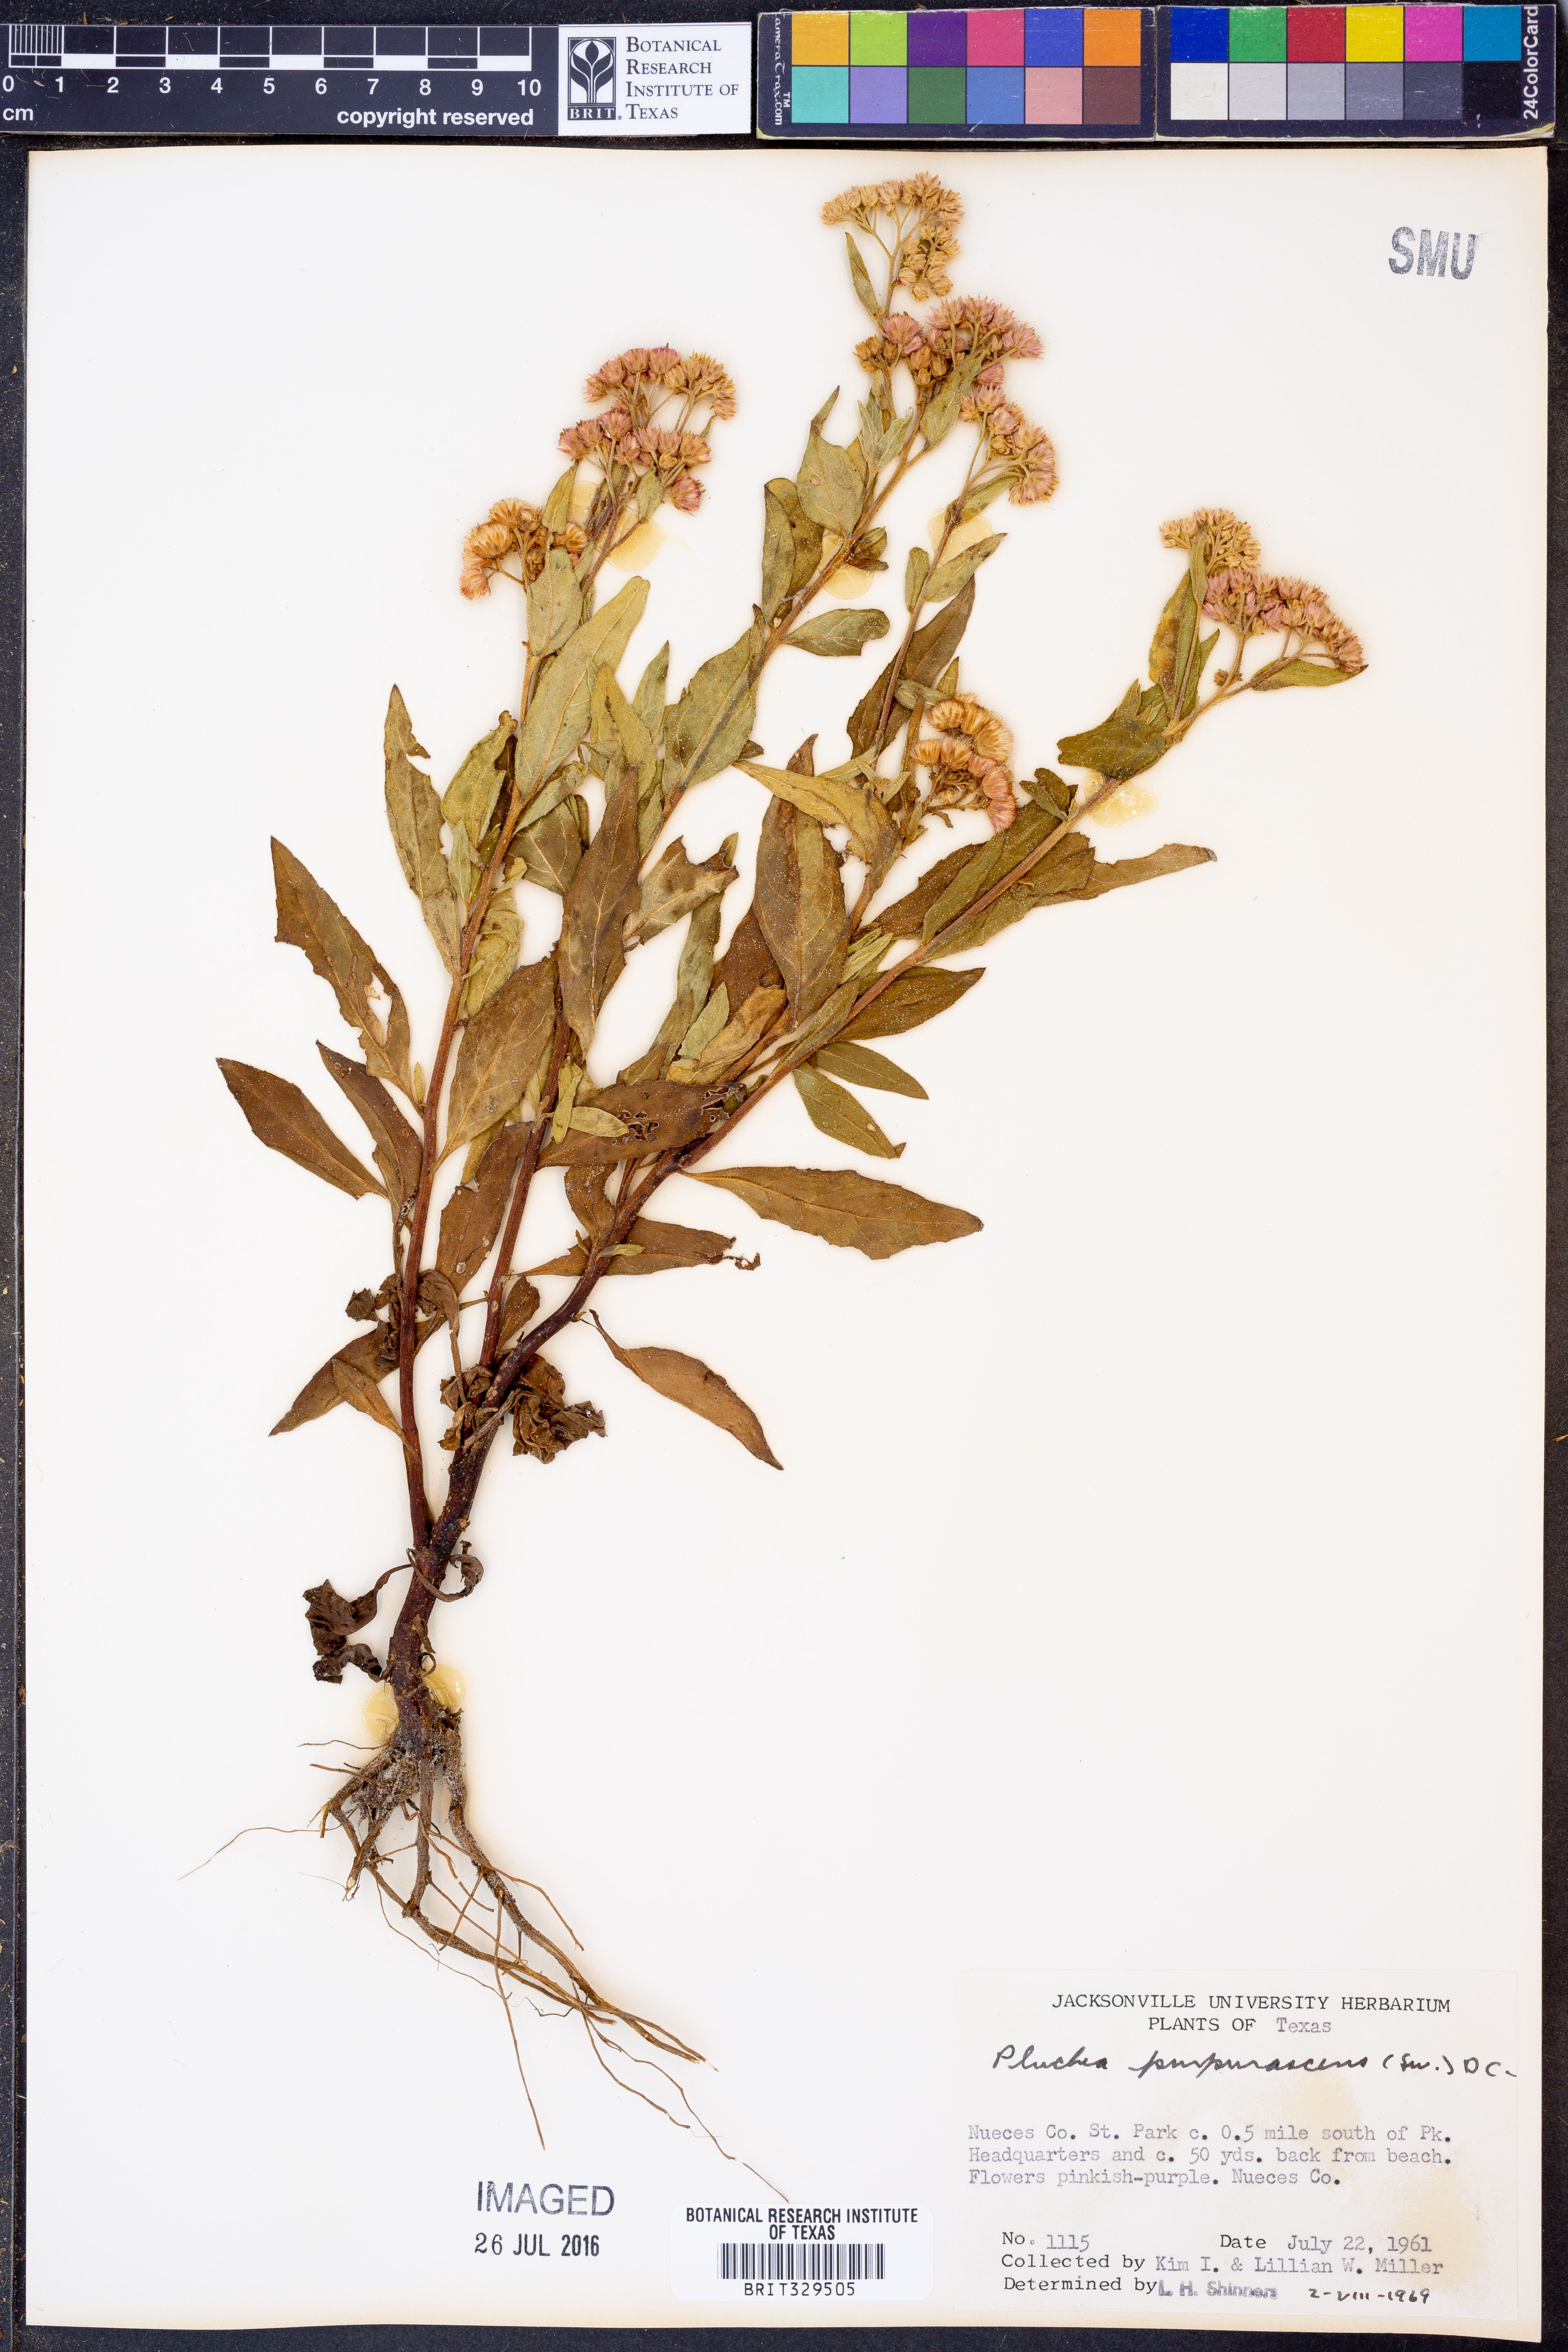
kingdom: Plantae
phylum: Tracheophyta
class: Magnoliopsida
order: Asterales
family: Asteraceae
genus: Pluchea
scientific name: Pluchea odorata
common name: Saltmarsh fleabane
